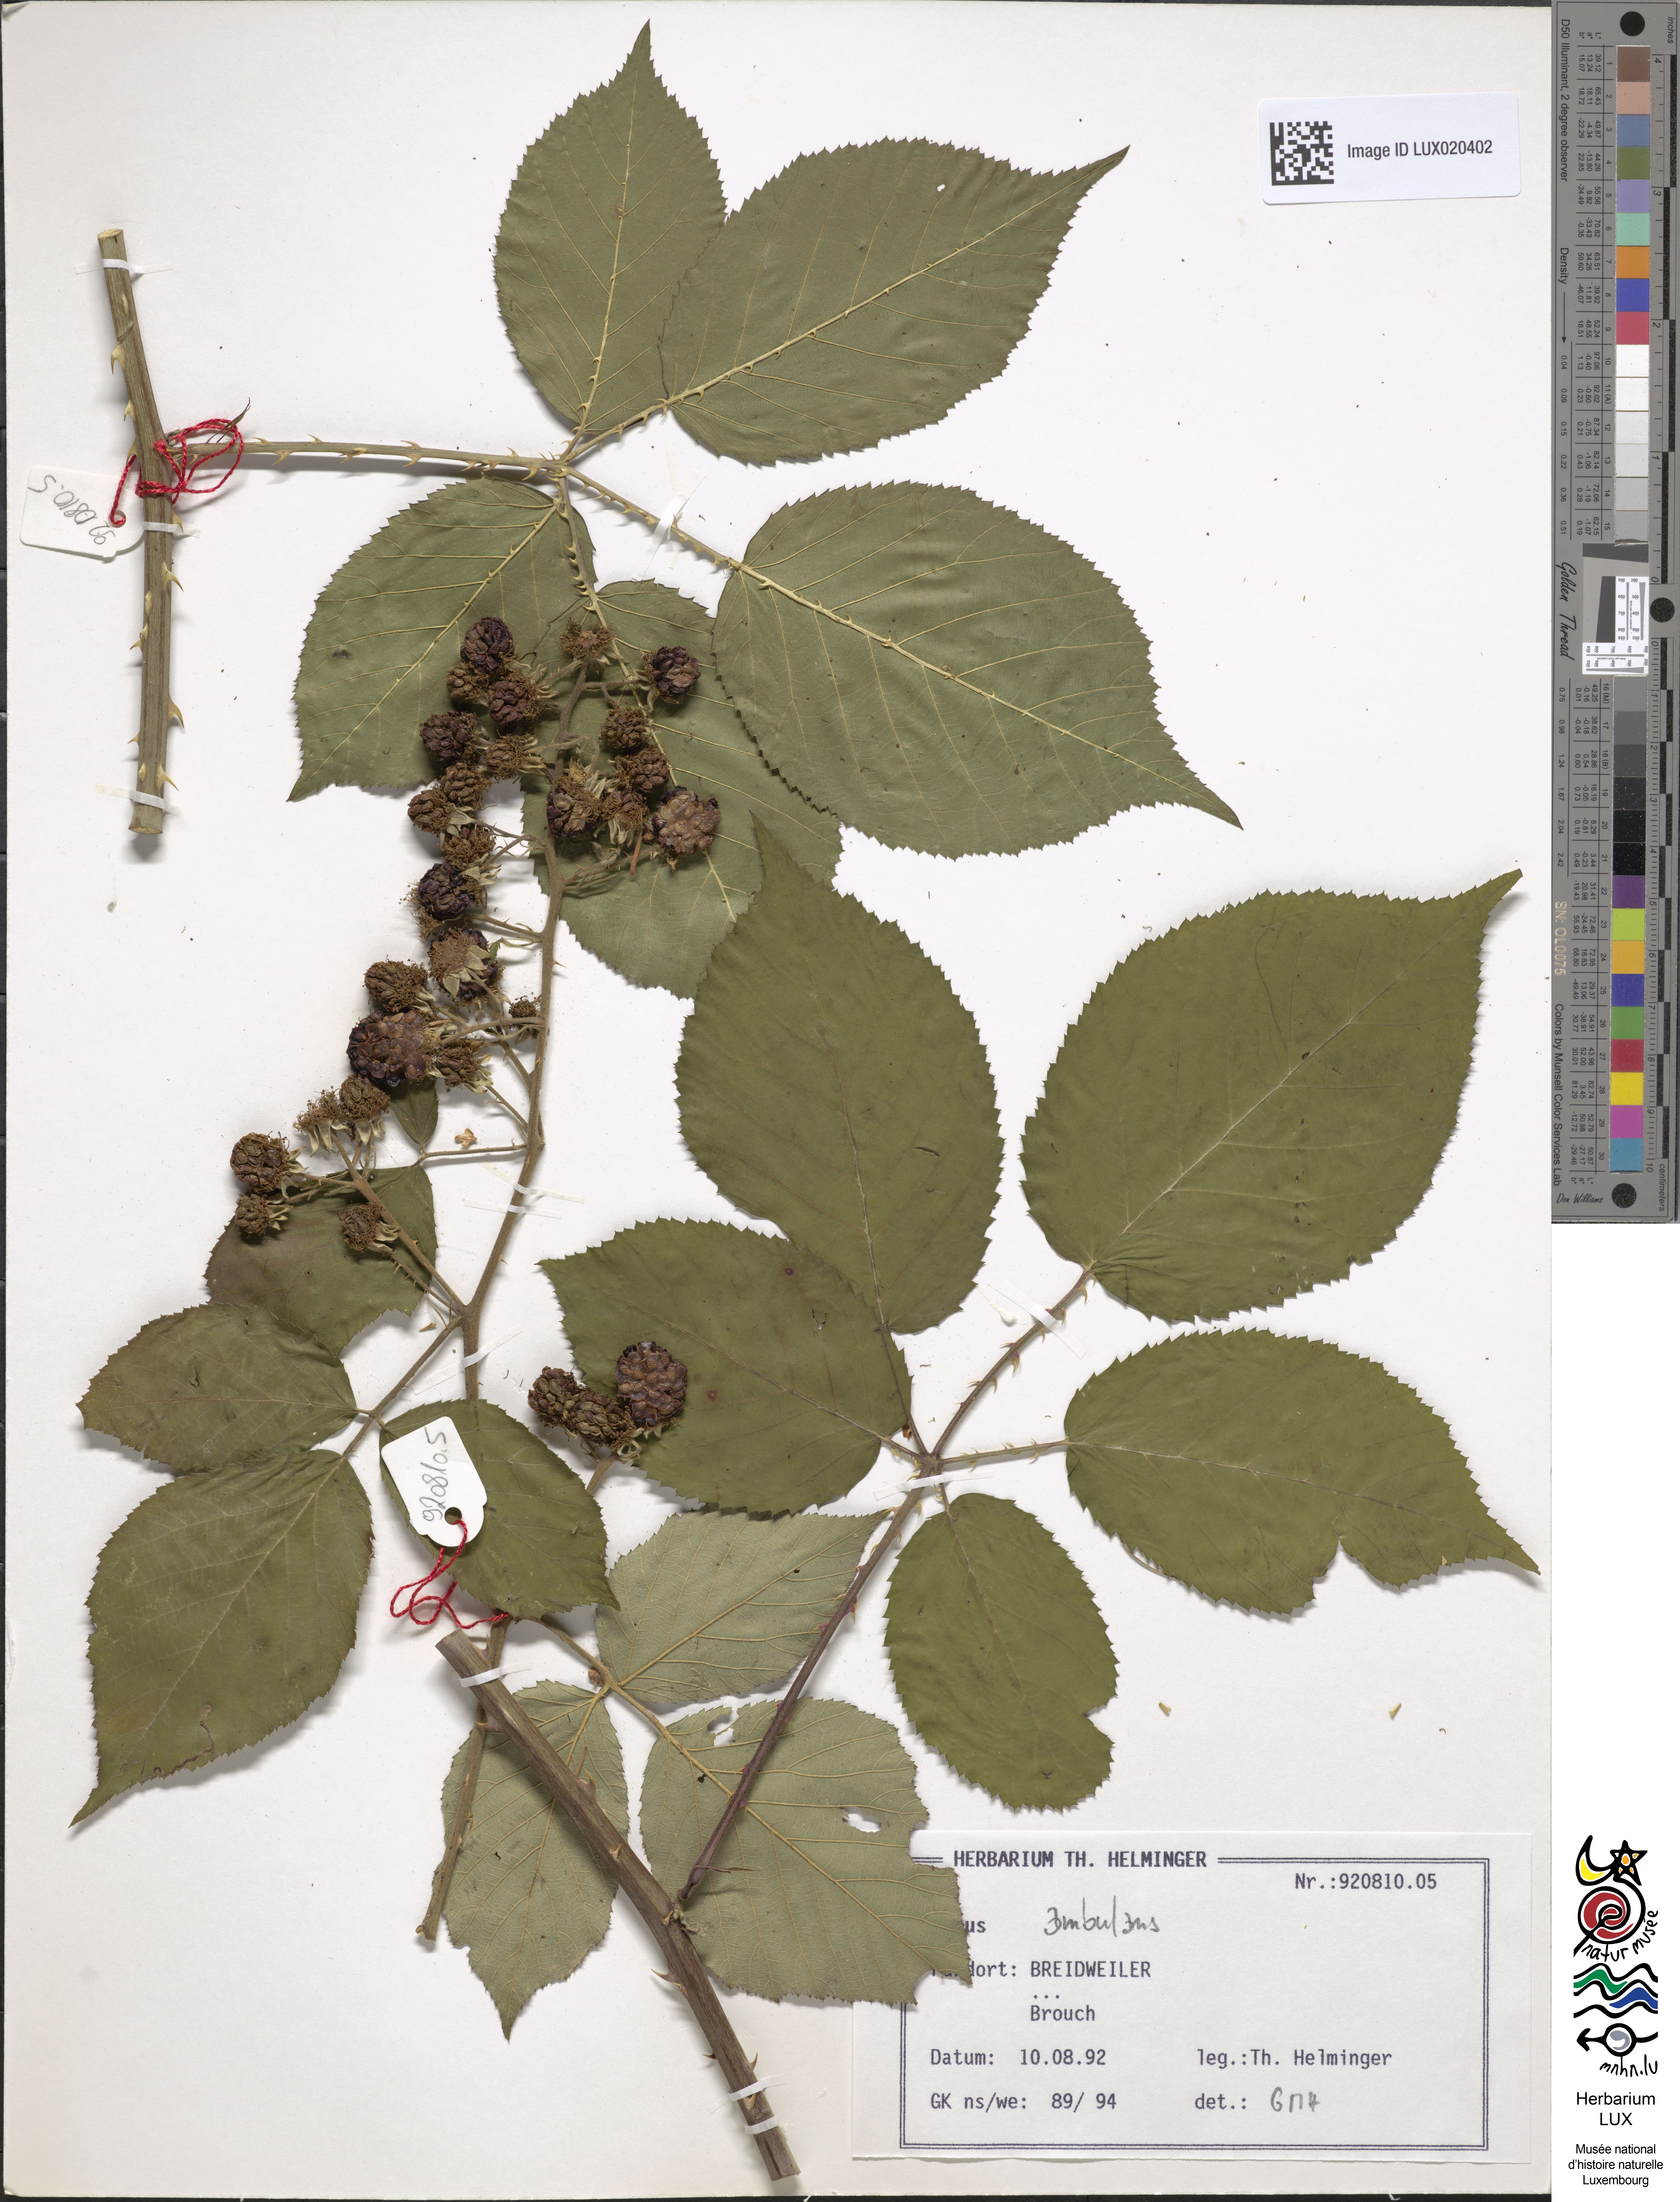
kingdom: Plantae
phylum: Tracheophyta
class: Magnoliopsida
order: Rosales
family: Rosaceae
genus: Rubus
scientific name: Rubus gremlii
